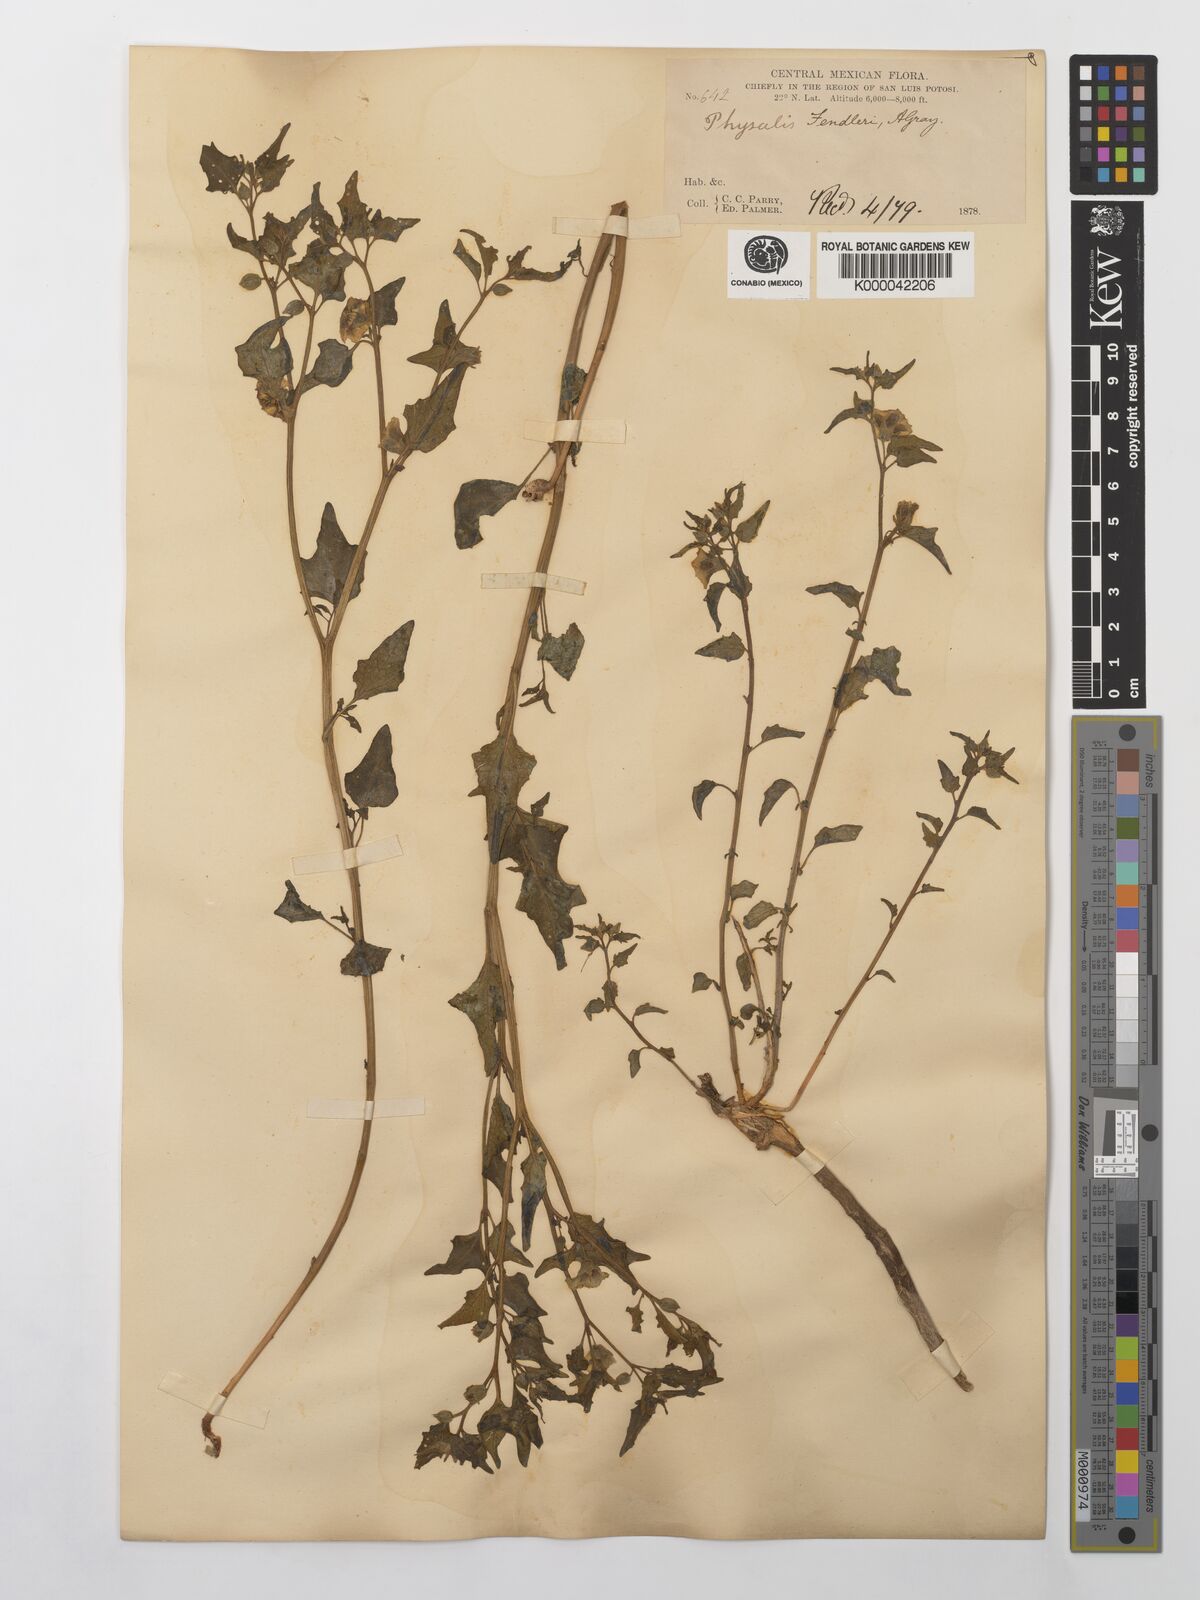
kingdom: Plantae
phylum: Tracheophyta
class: Magnoliopsida
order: Solanales
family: Solanaceae
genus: Physalis
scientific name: Physalis fendleri
